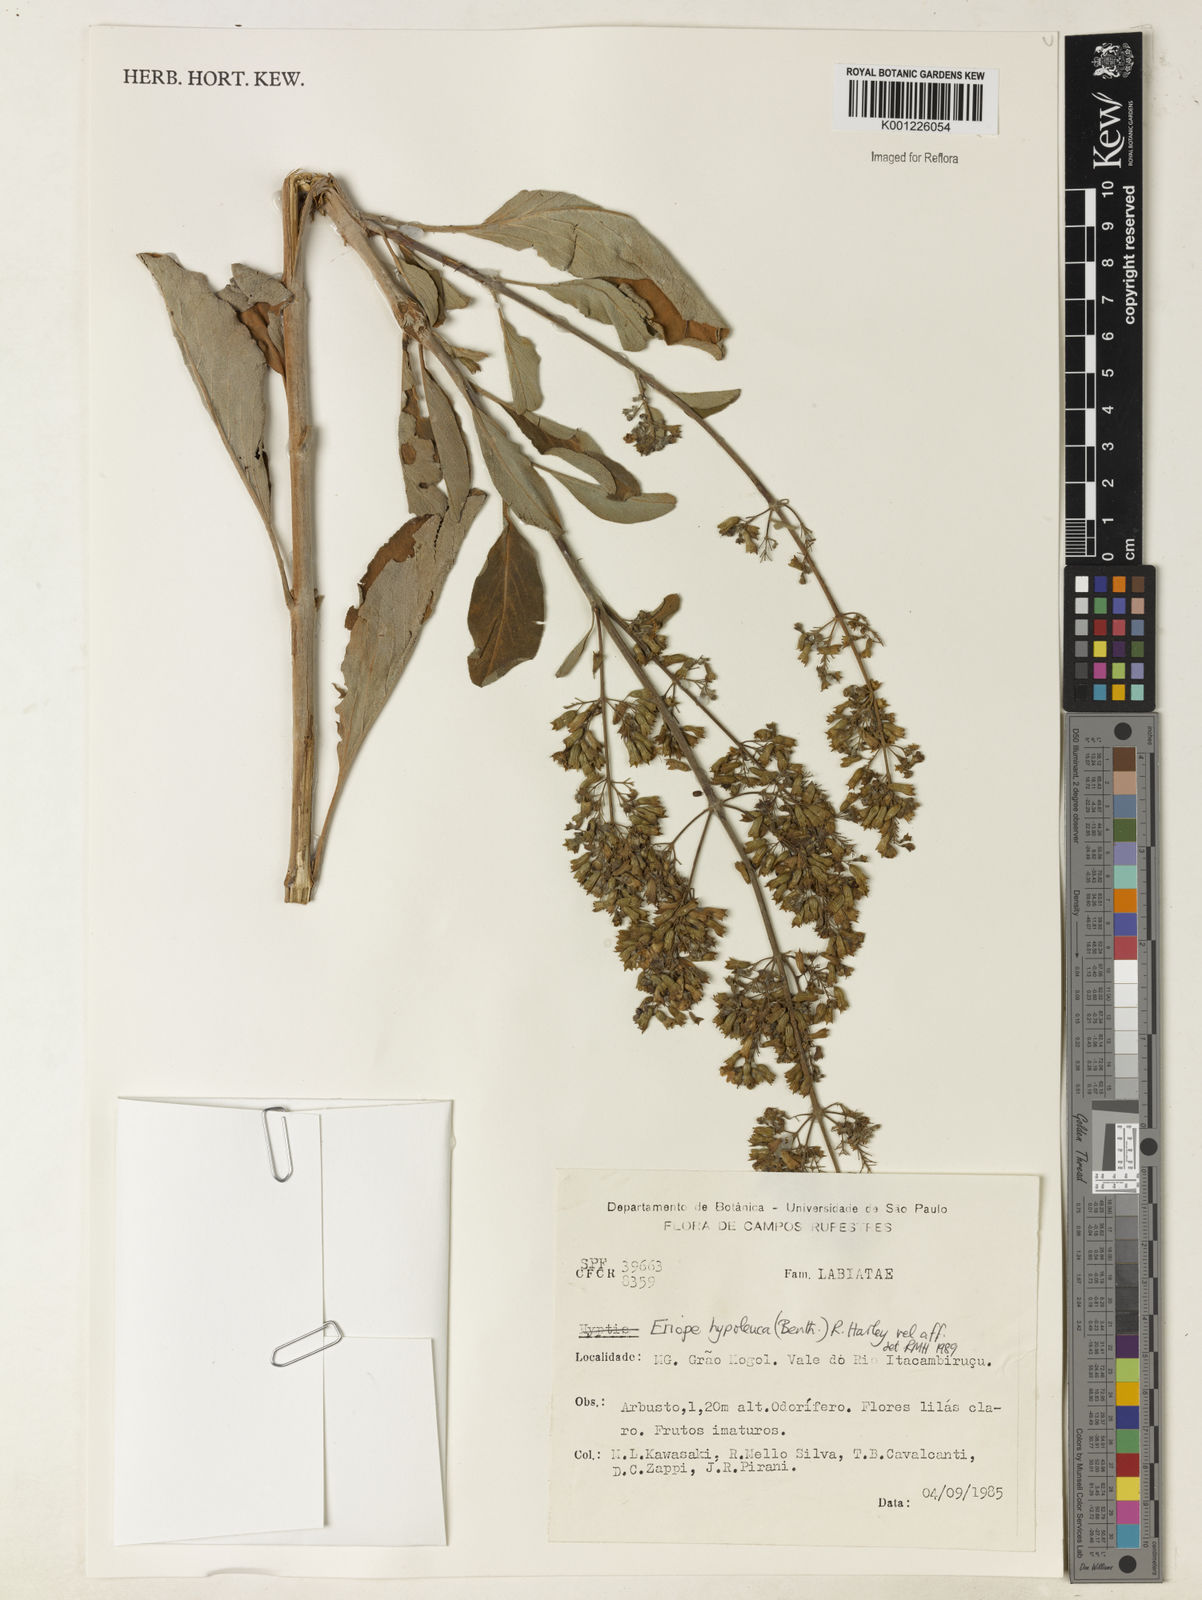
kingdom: Plantae
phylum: Tracheophyta
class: Magnoliopsida
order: Lamiales
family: Lamiaceae
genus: Eriope
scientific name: Eriope hypoleuca
